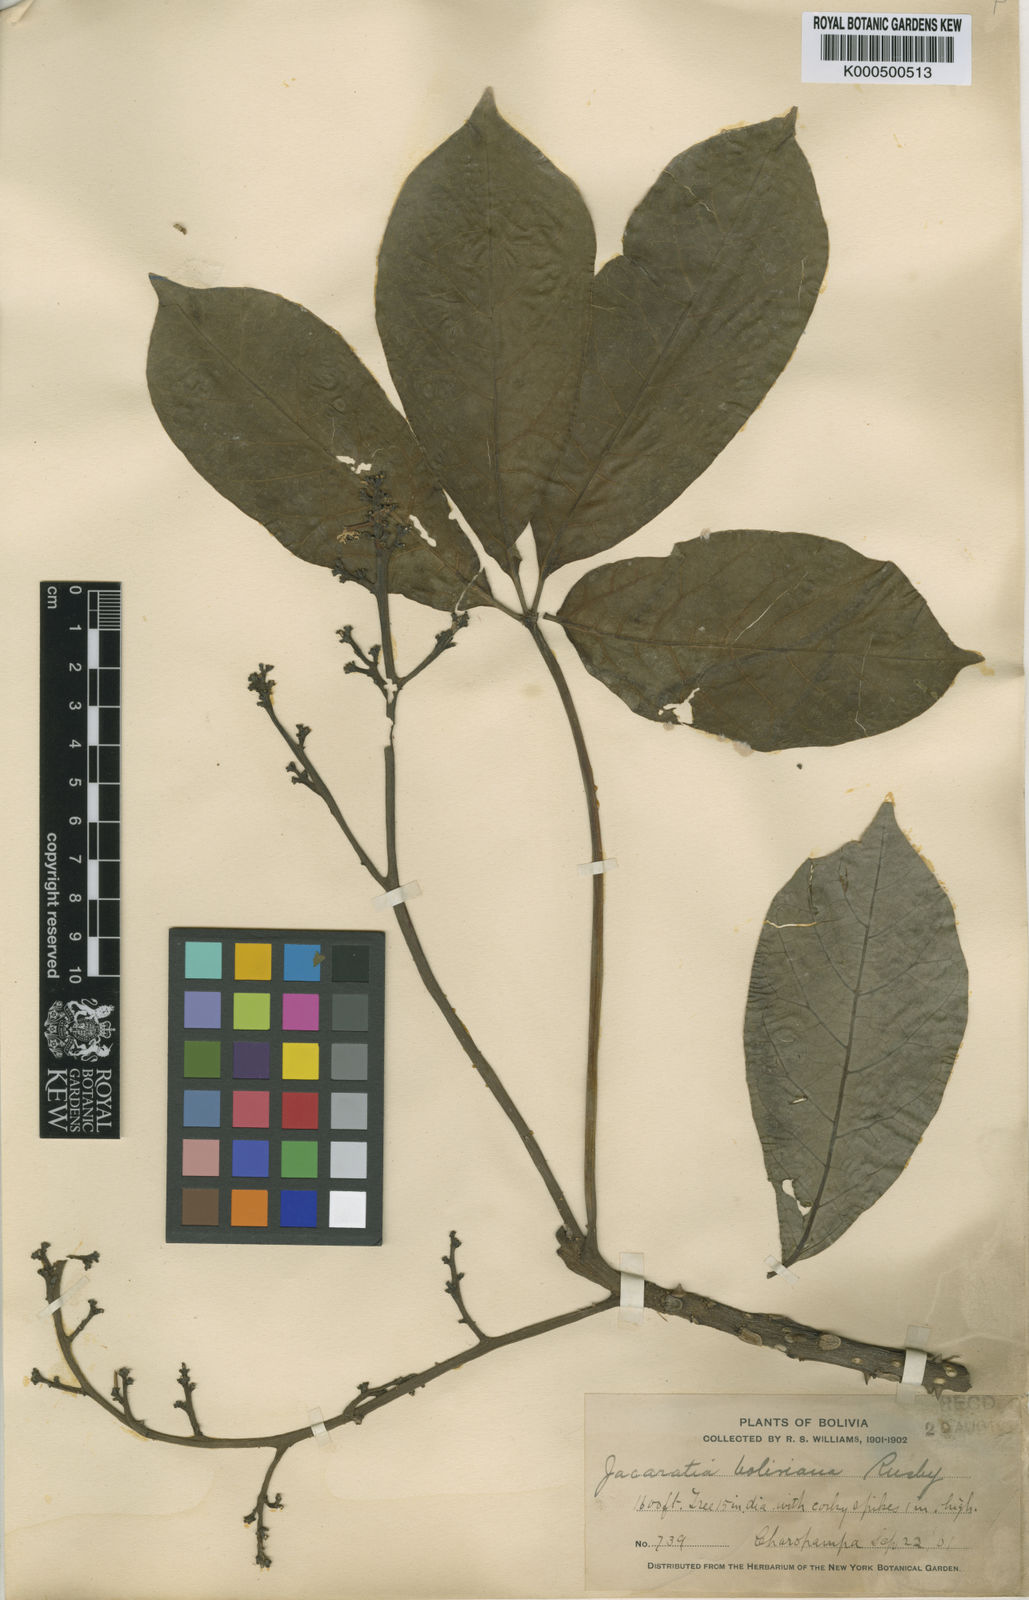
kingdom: Plantae
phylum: Tracheophyta
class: Magnoliopsida
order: Brassicales
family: Caricaceae
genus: Jacaratia
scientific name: Jacaratia digitata
